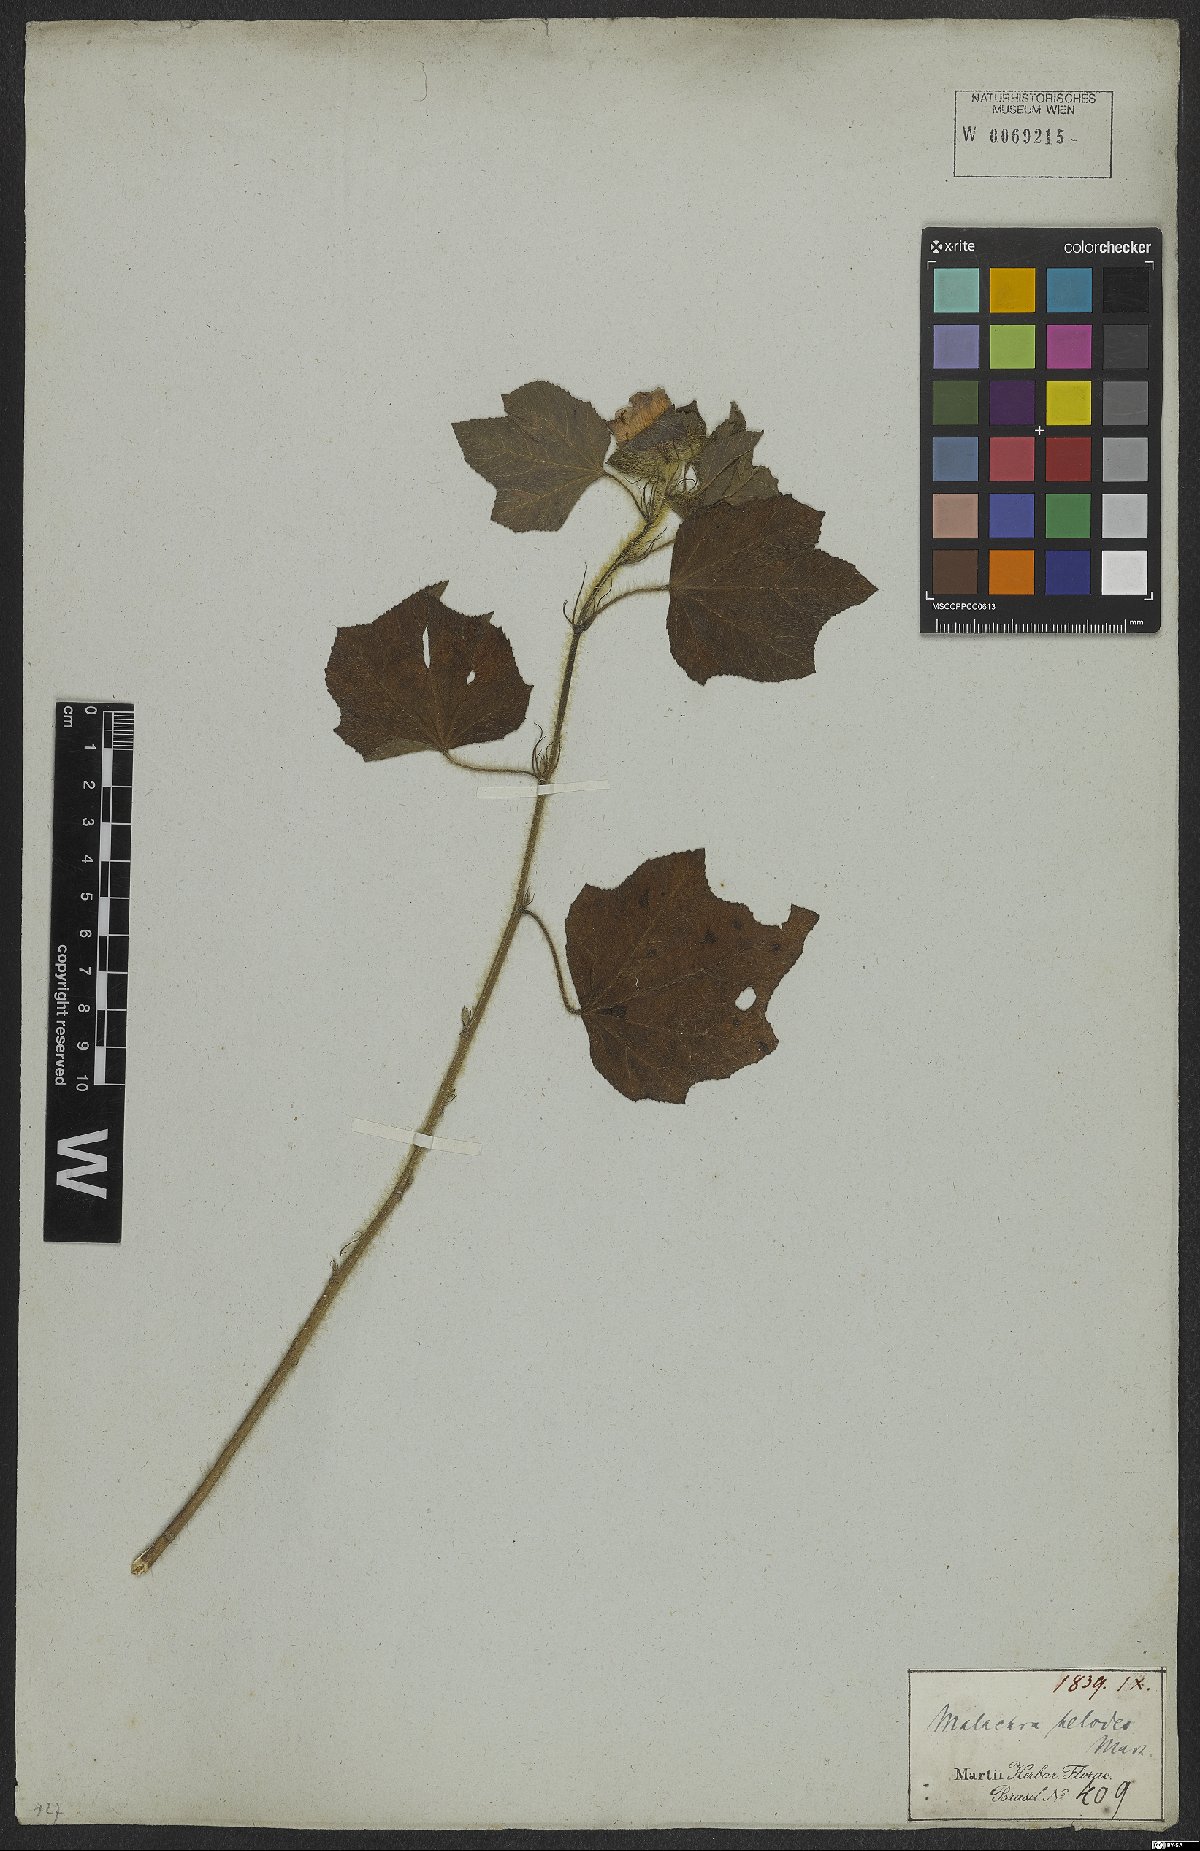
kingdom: Plantae
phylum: Tracheophyta
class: Magnoliopsida
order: Malvales
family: Malvaceae
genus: Malachra
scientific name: Malachra helodes
